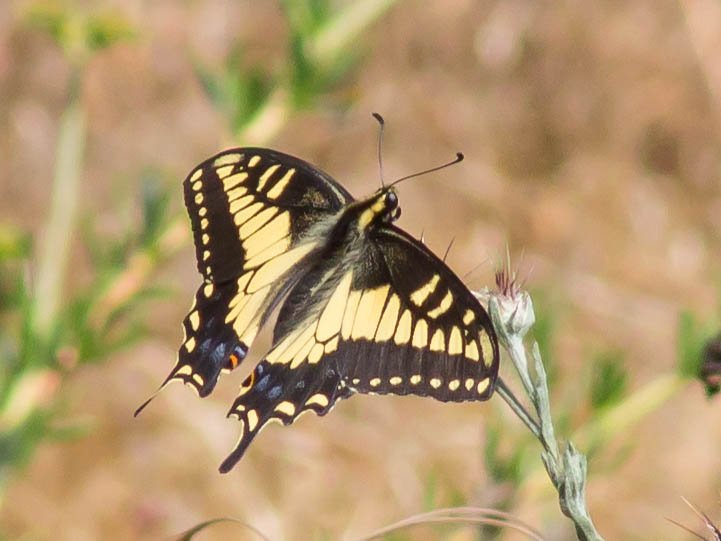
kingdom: Animalia
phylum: Arthropoda
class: Insecta
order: Lepidoptera
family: Papilionidae
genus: Papilio
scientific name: Papilio zelicaon
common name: Anise Swallowtail
